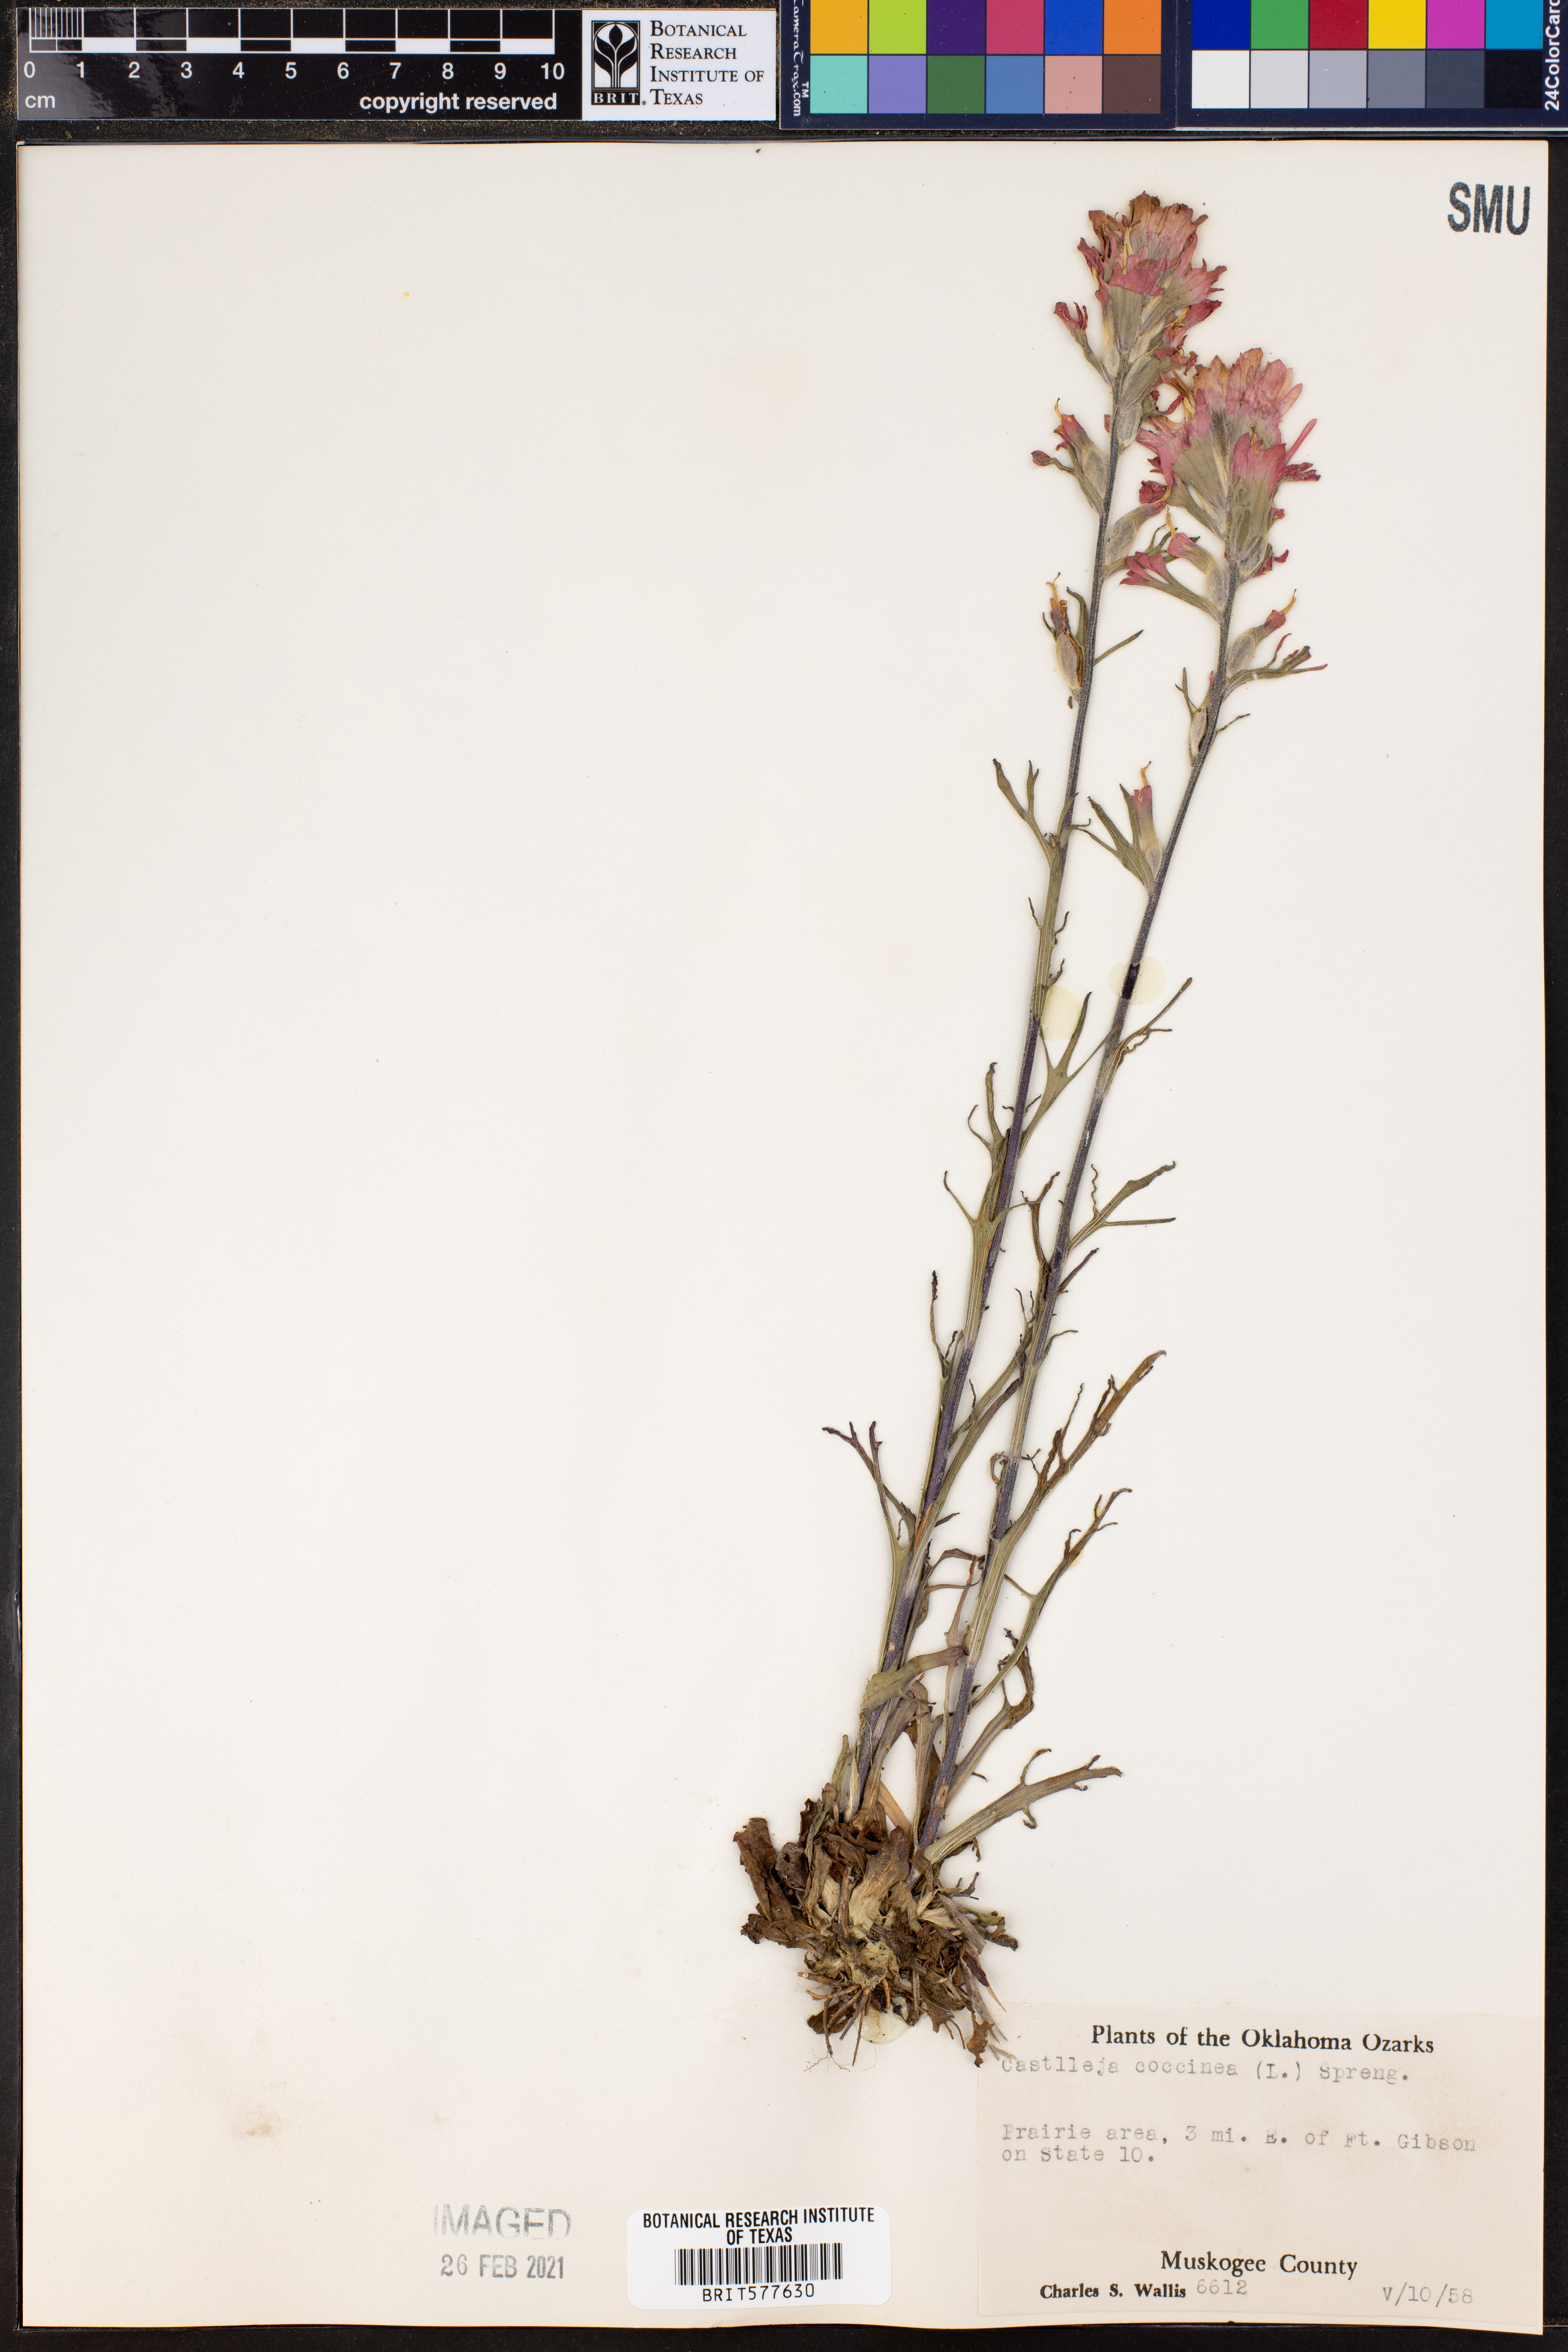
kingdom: Plantae
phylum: Tracheophyta
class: Magnoliopsida
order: Lamiales
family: Orobanchaceae
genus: Castilleja
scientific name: Castilleja coccinea
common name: Scarlet paintbrush
